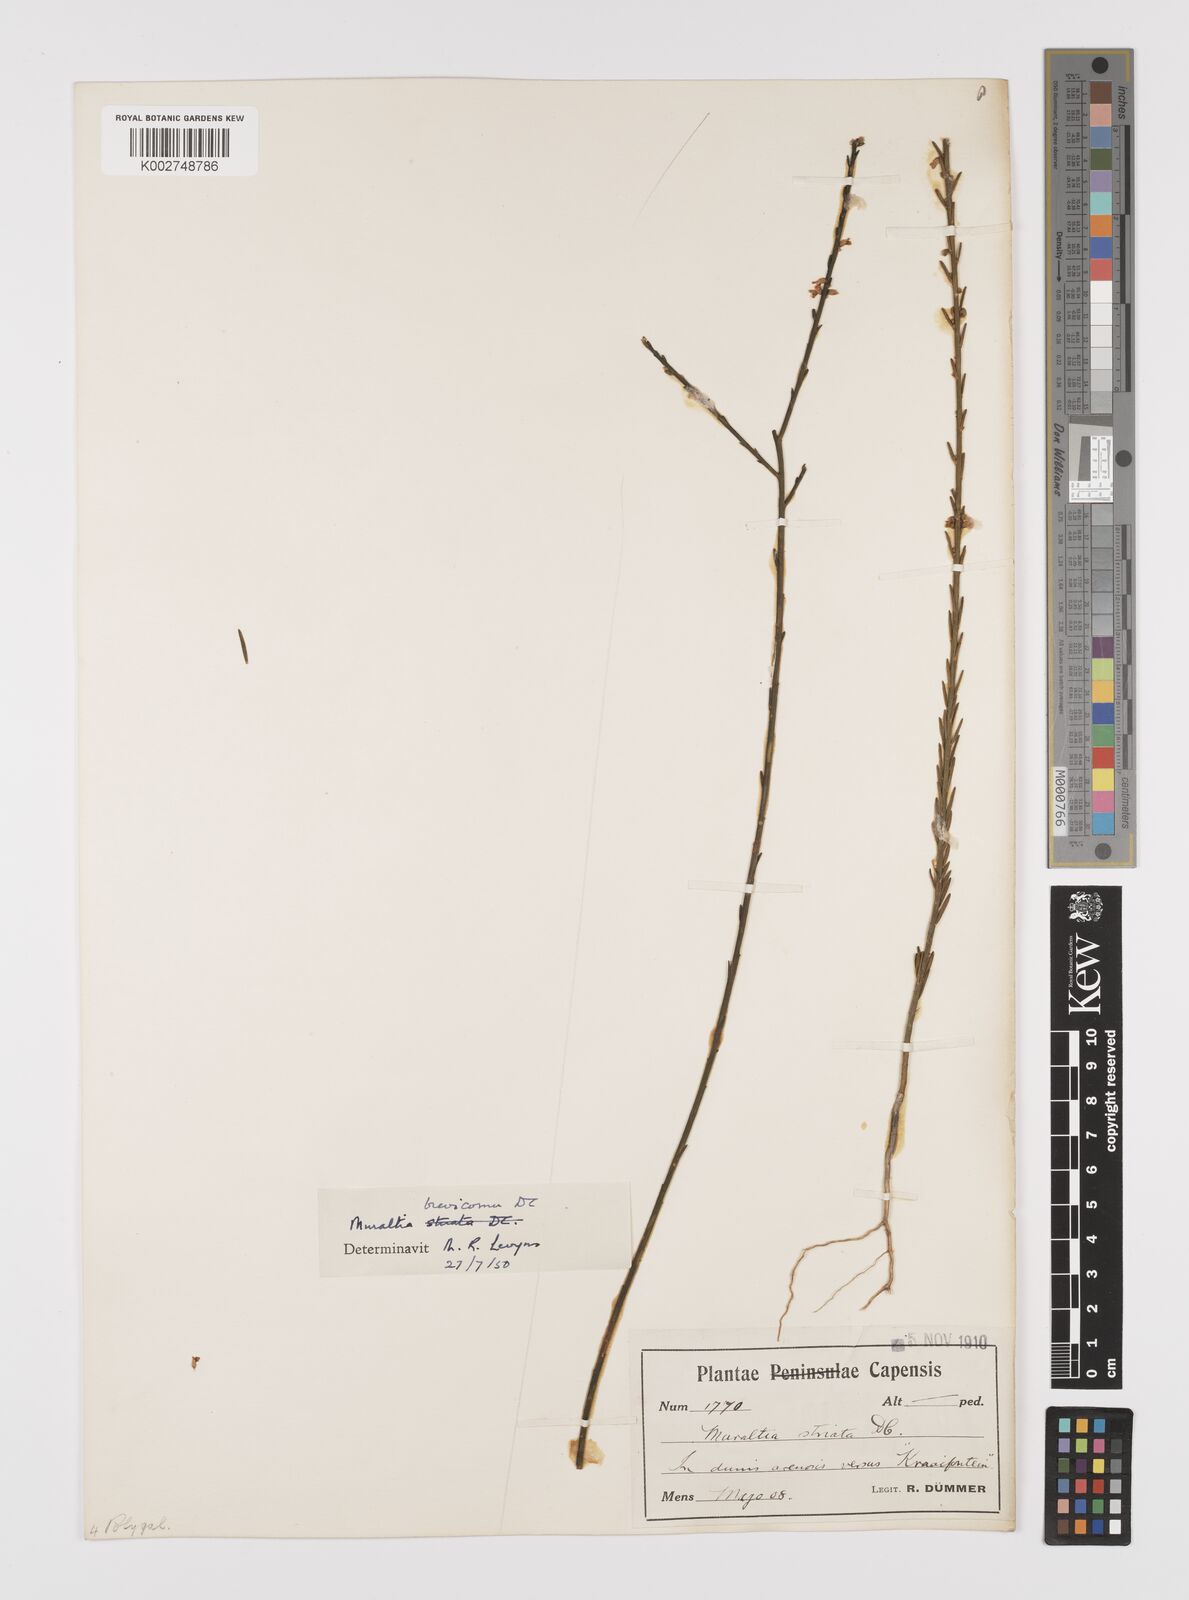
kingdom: Plantae
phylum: Tracheophyta
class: Magnoliopsida
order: Fabales
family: Polygalaceae
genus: Muraltia
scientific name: Muraltia striata
